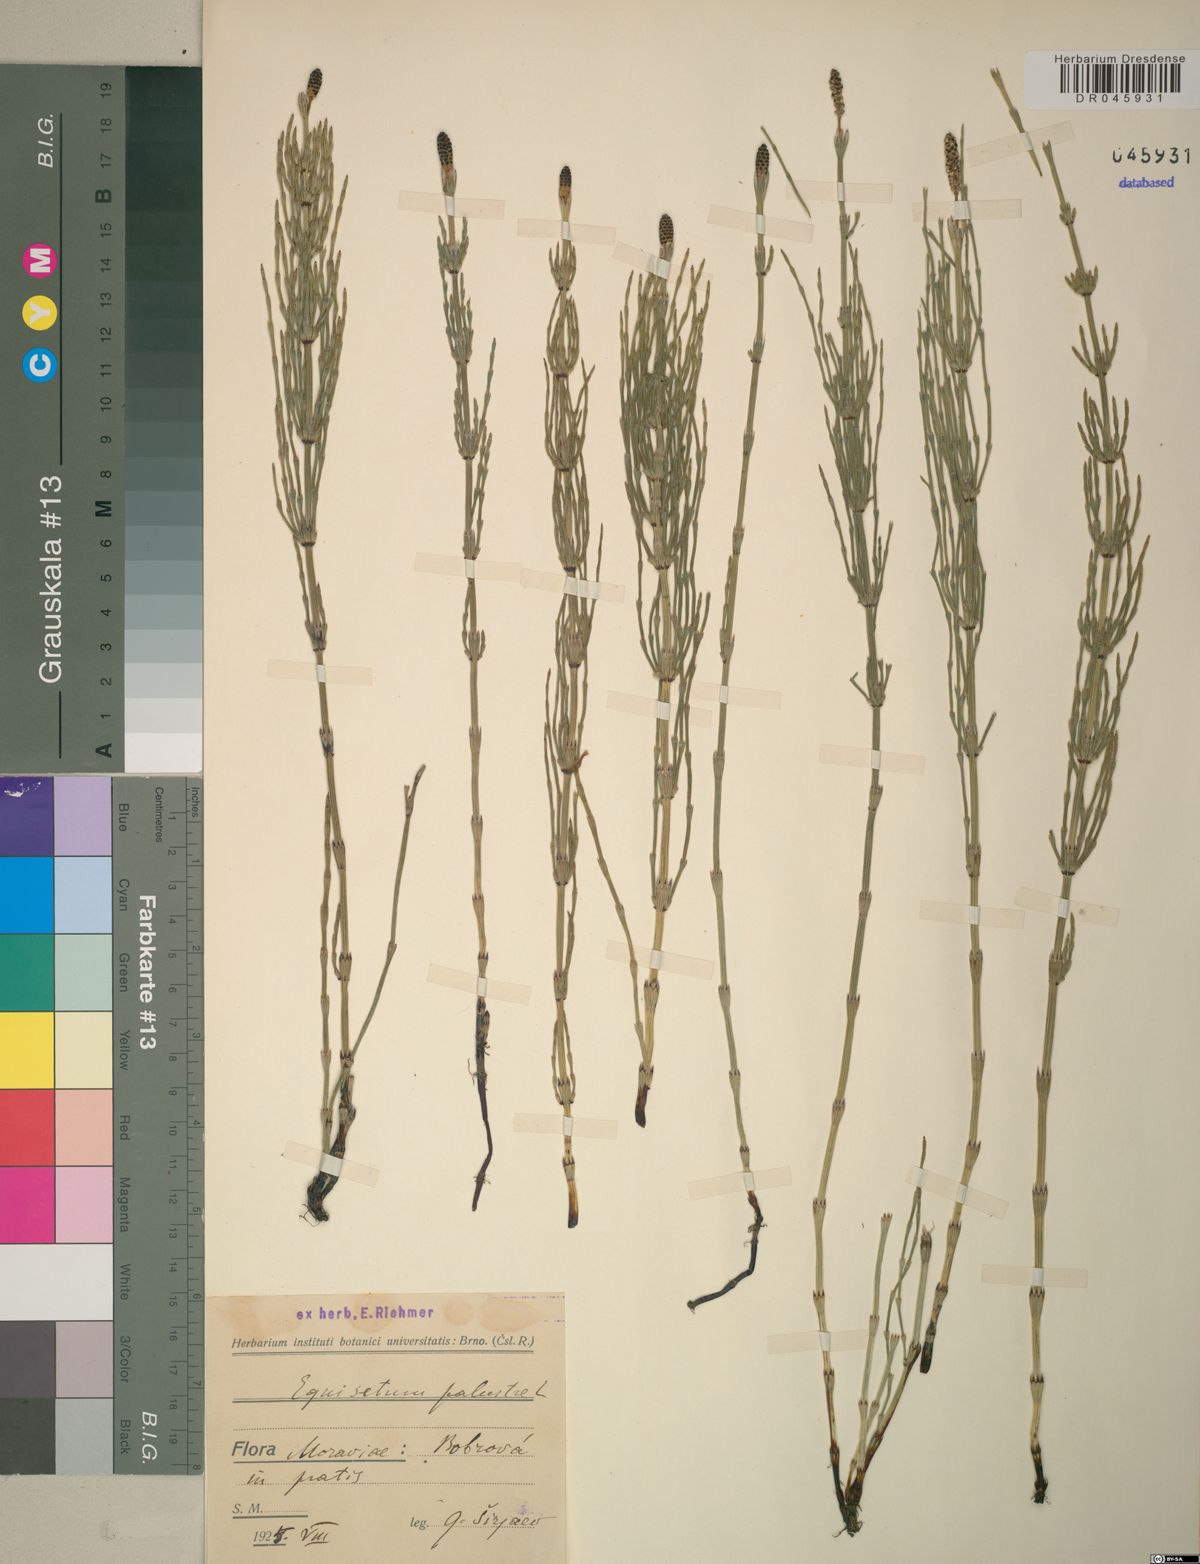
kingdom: Plantae
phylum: Tracheophyta
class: Polypodiopsida
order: Equisetales
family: Equisetaceae
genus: Equisetum
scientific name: Equisetum palustre
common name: Marsh horsetail
